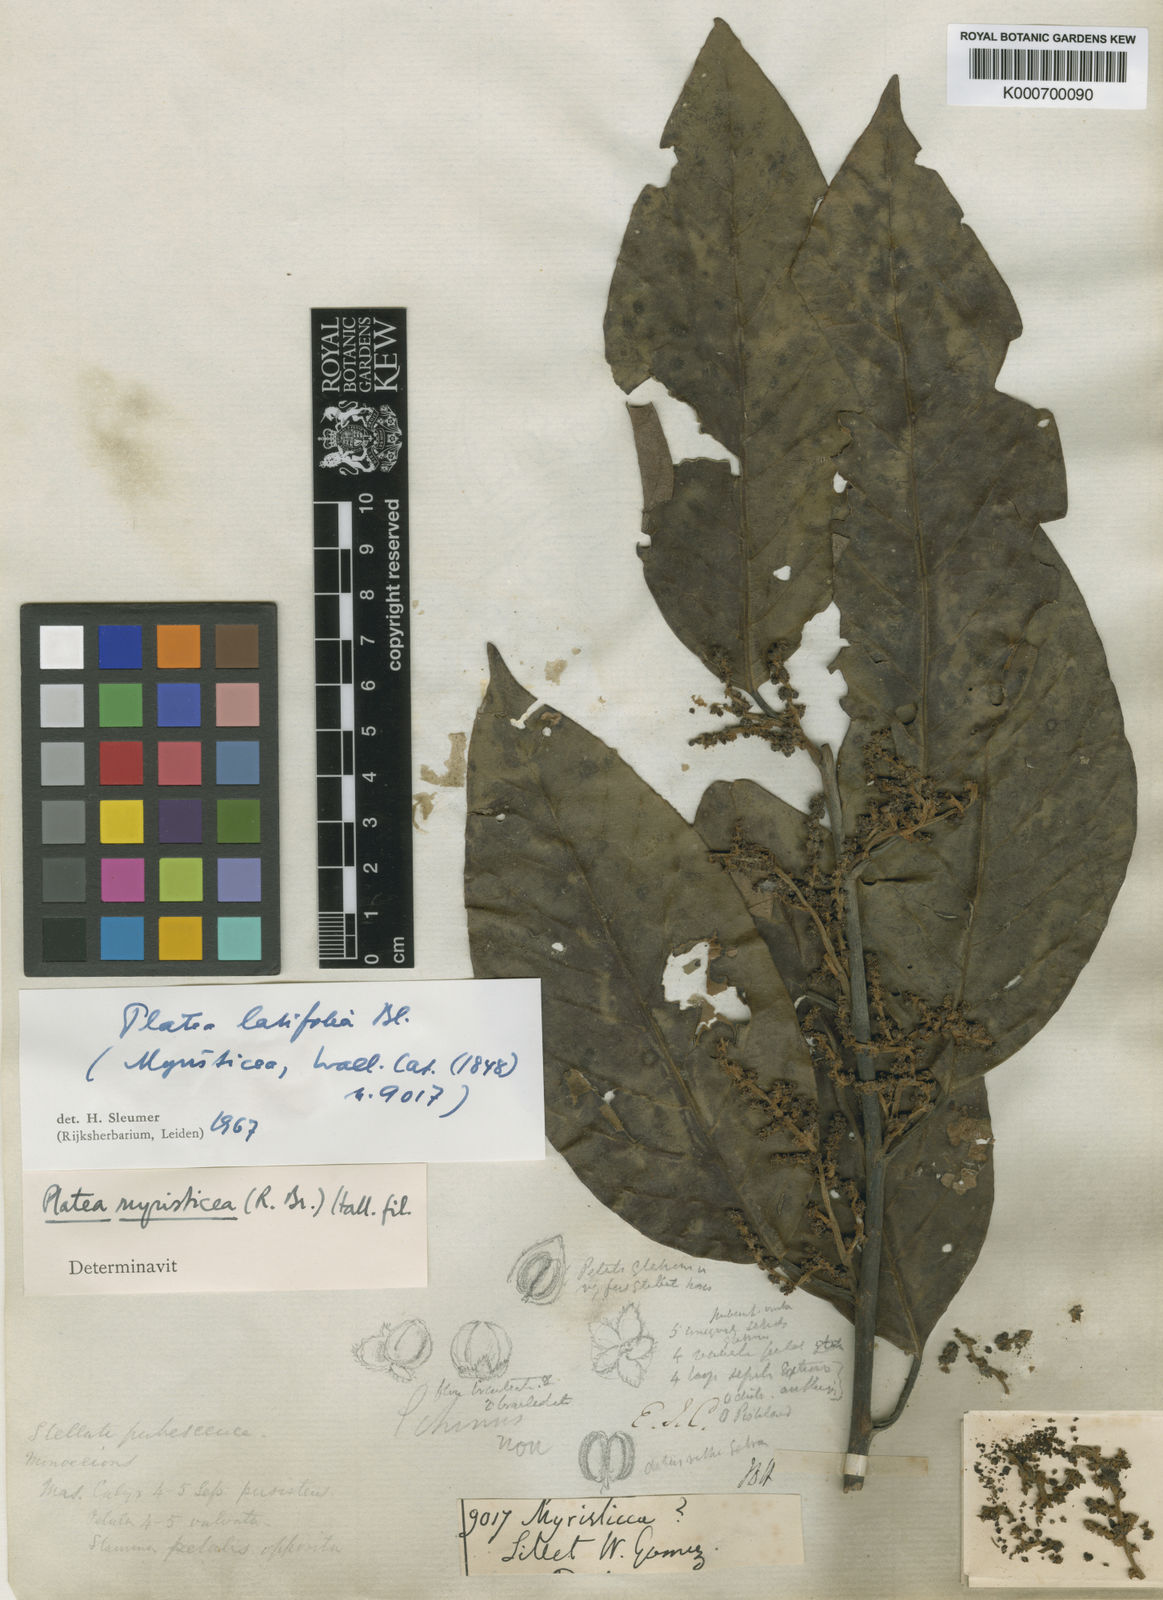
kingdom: Plantae
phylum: Tracheophyta
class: Magnoliopsida
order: Metteniusales
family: Metteniusaceae
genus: Platea
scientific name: Platea latifolia
